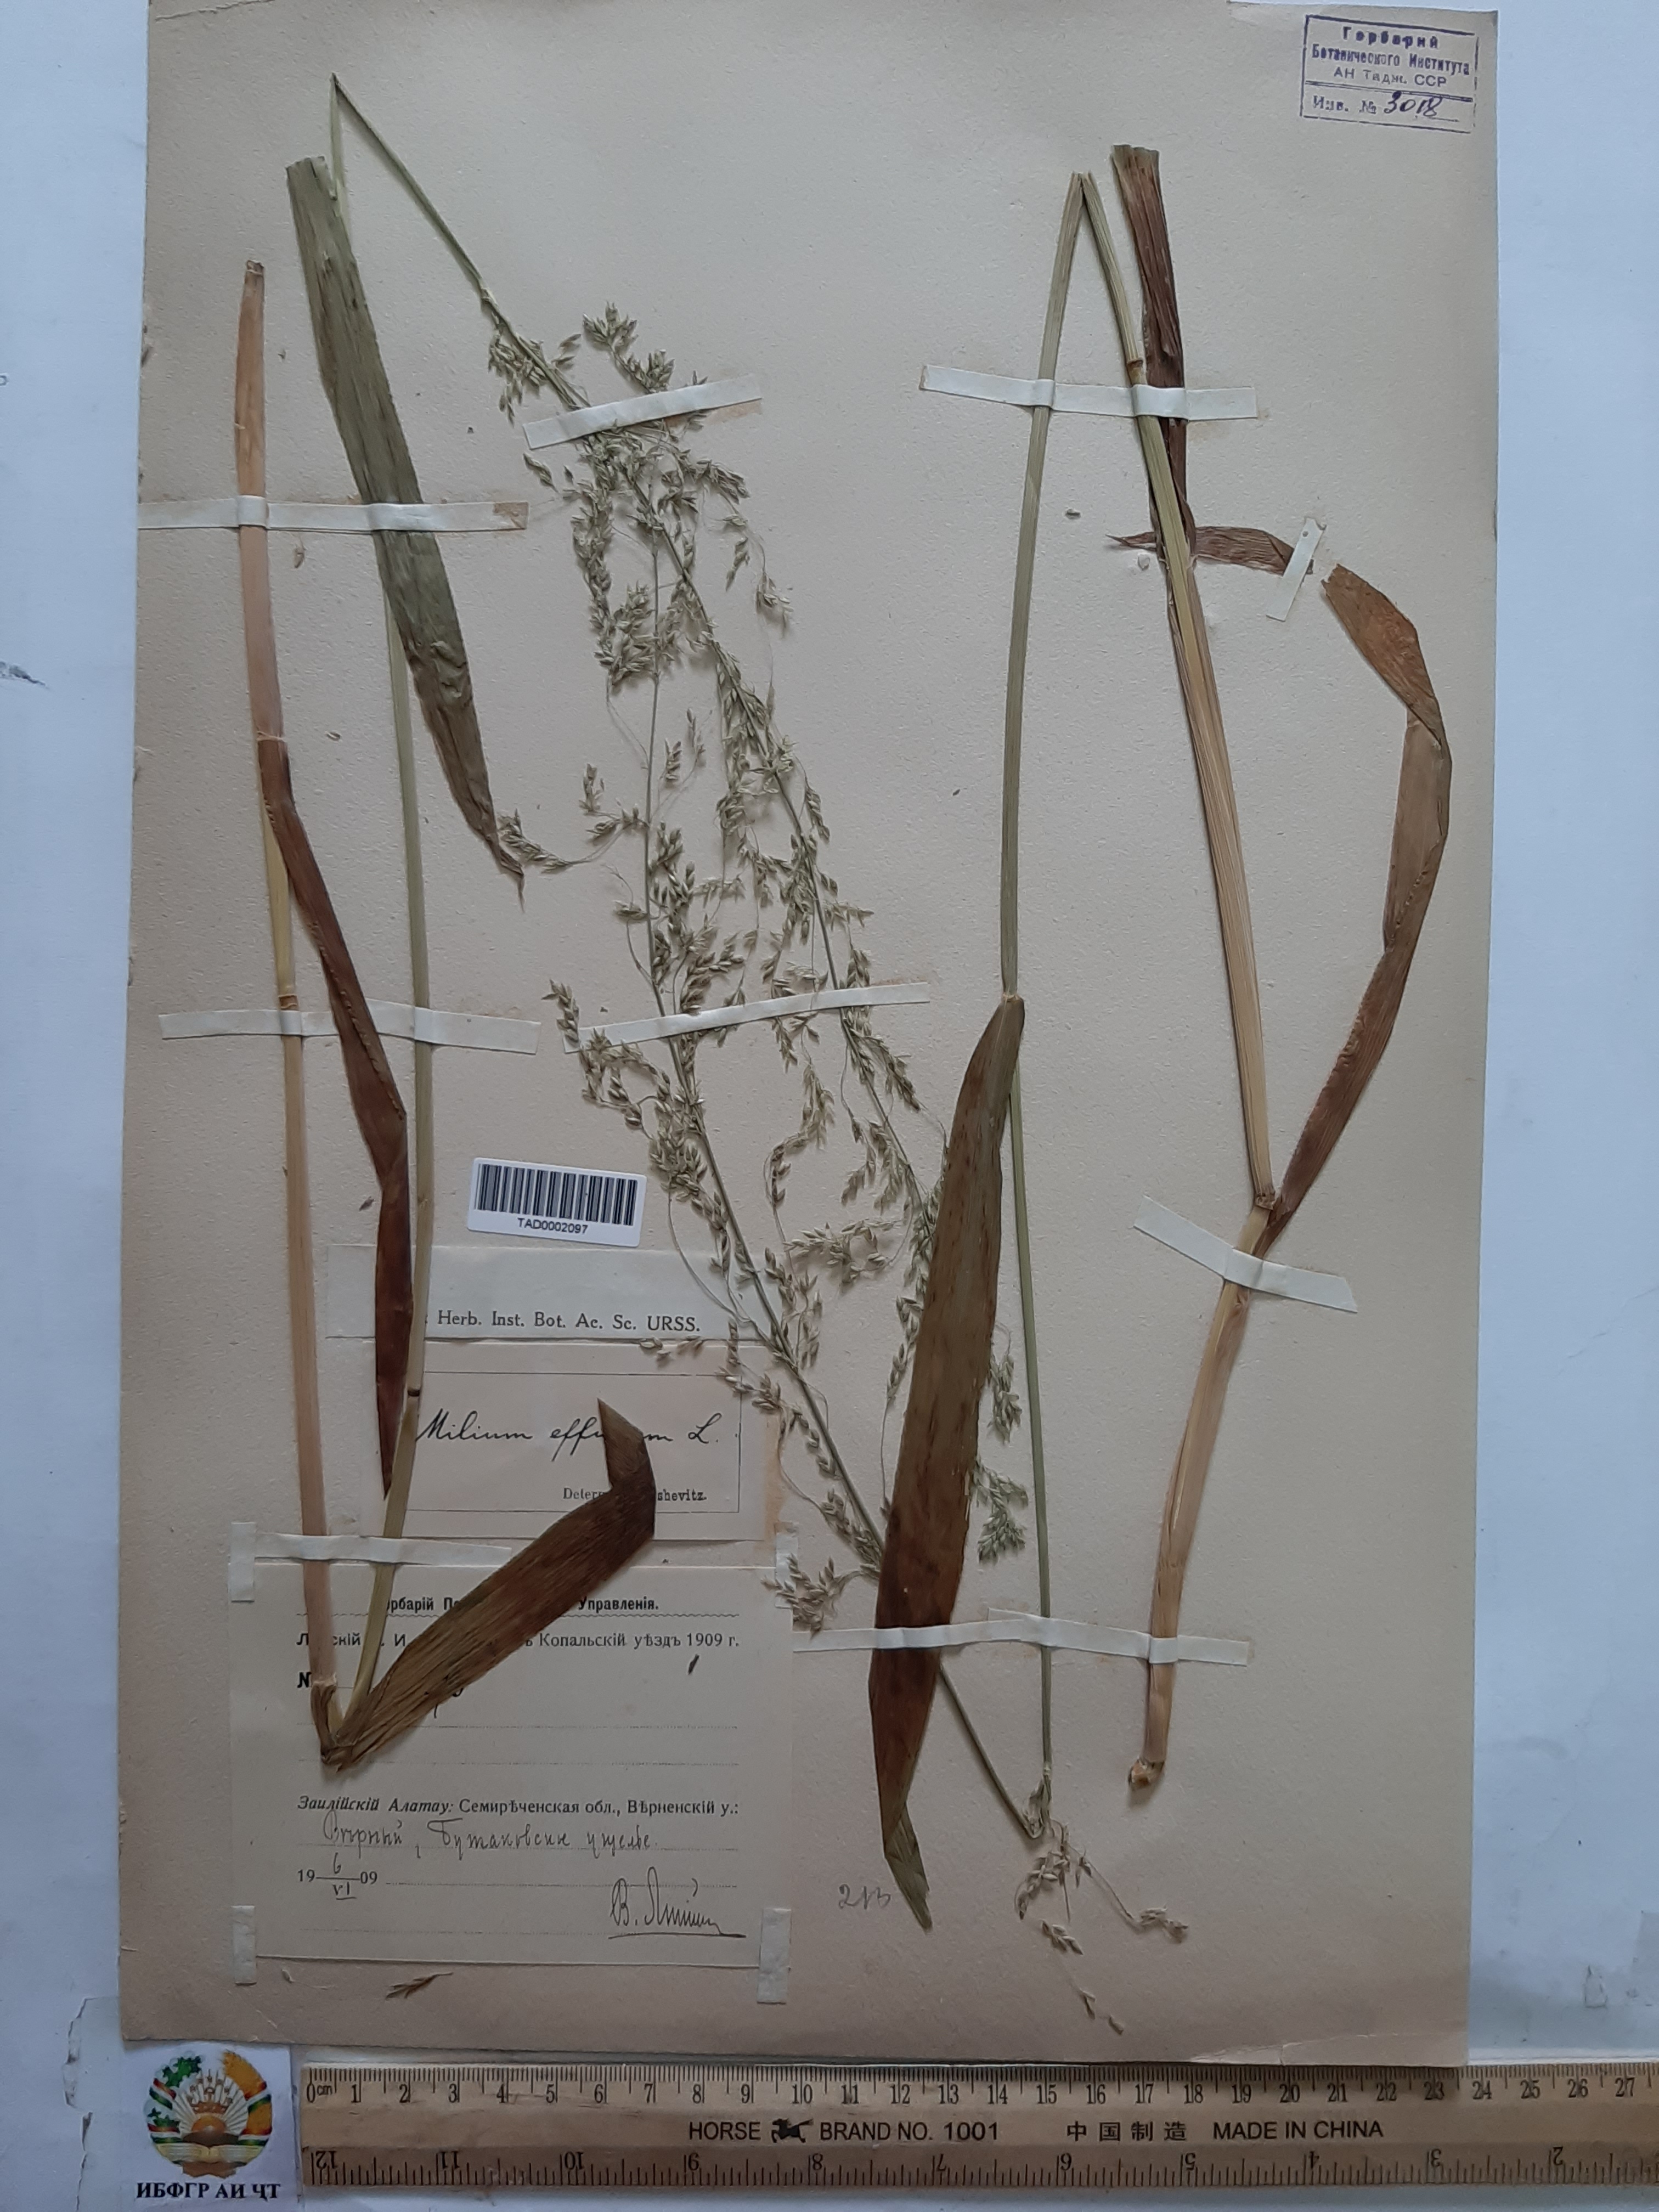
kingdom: Plantae
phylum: Tracheophyta
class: Liliopsida
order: Poales
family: Poaceae
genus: Milium
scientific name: Milium effusum
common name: Wood millet
